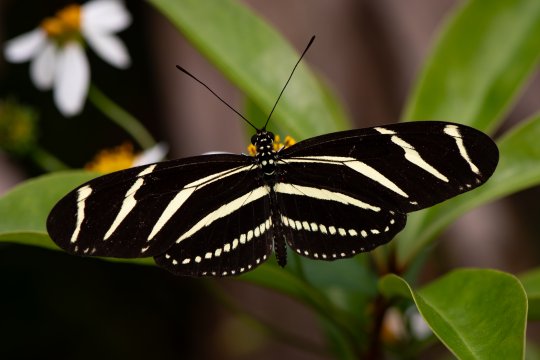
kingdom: Animalia
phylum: Arthropoda
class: Insecta
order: Lepidoptera
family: Nymphalidae
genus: Heliconius
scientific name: Heliconius charithonia
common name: Zebra Longwing
